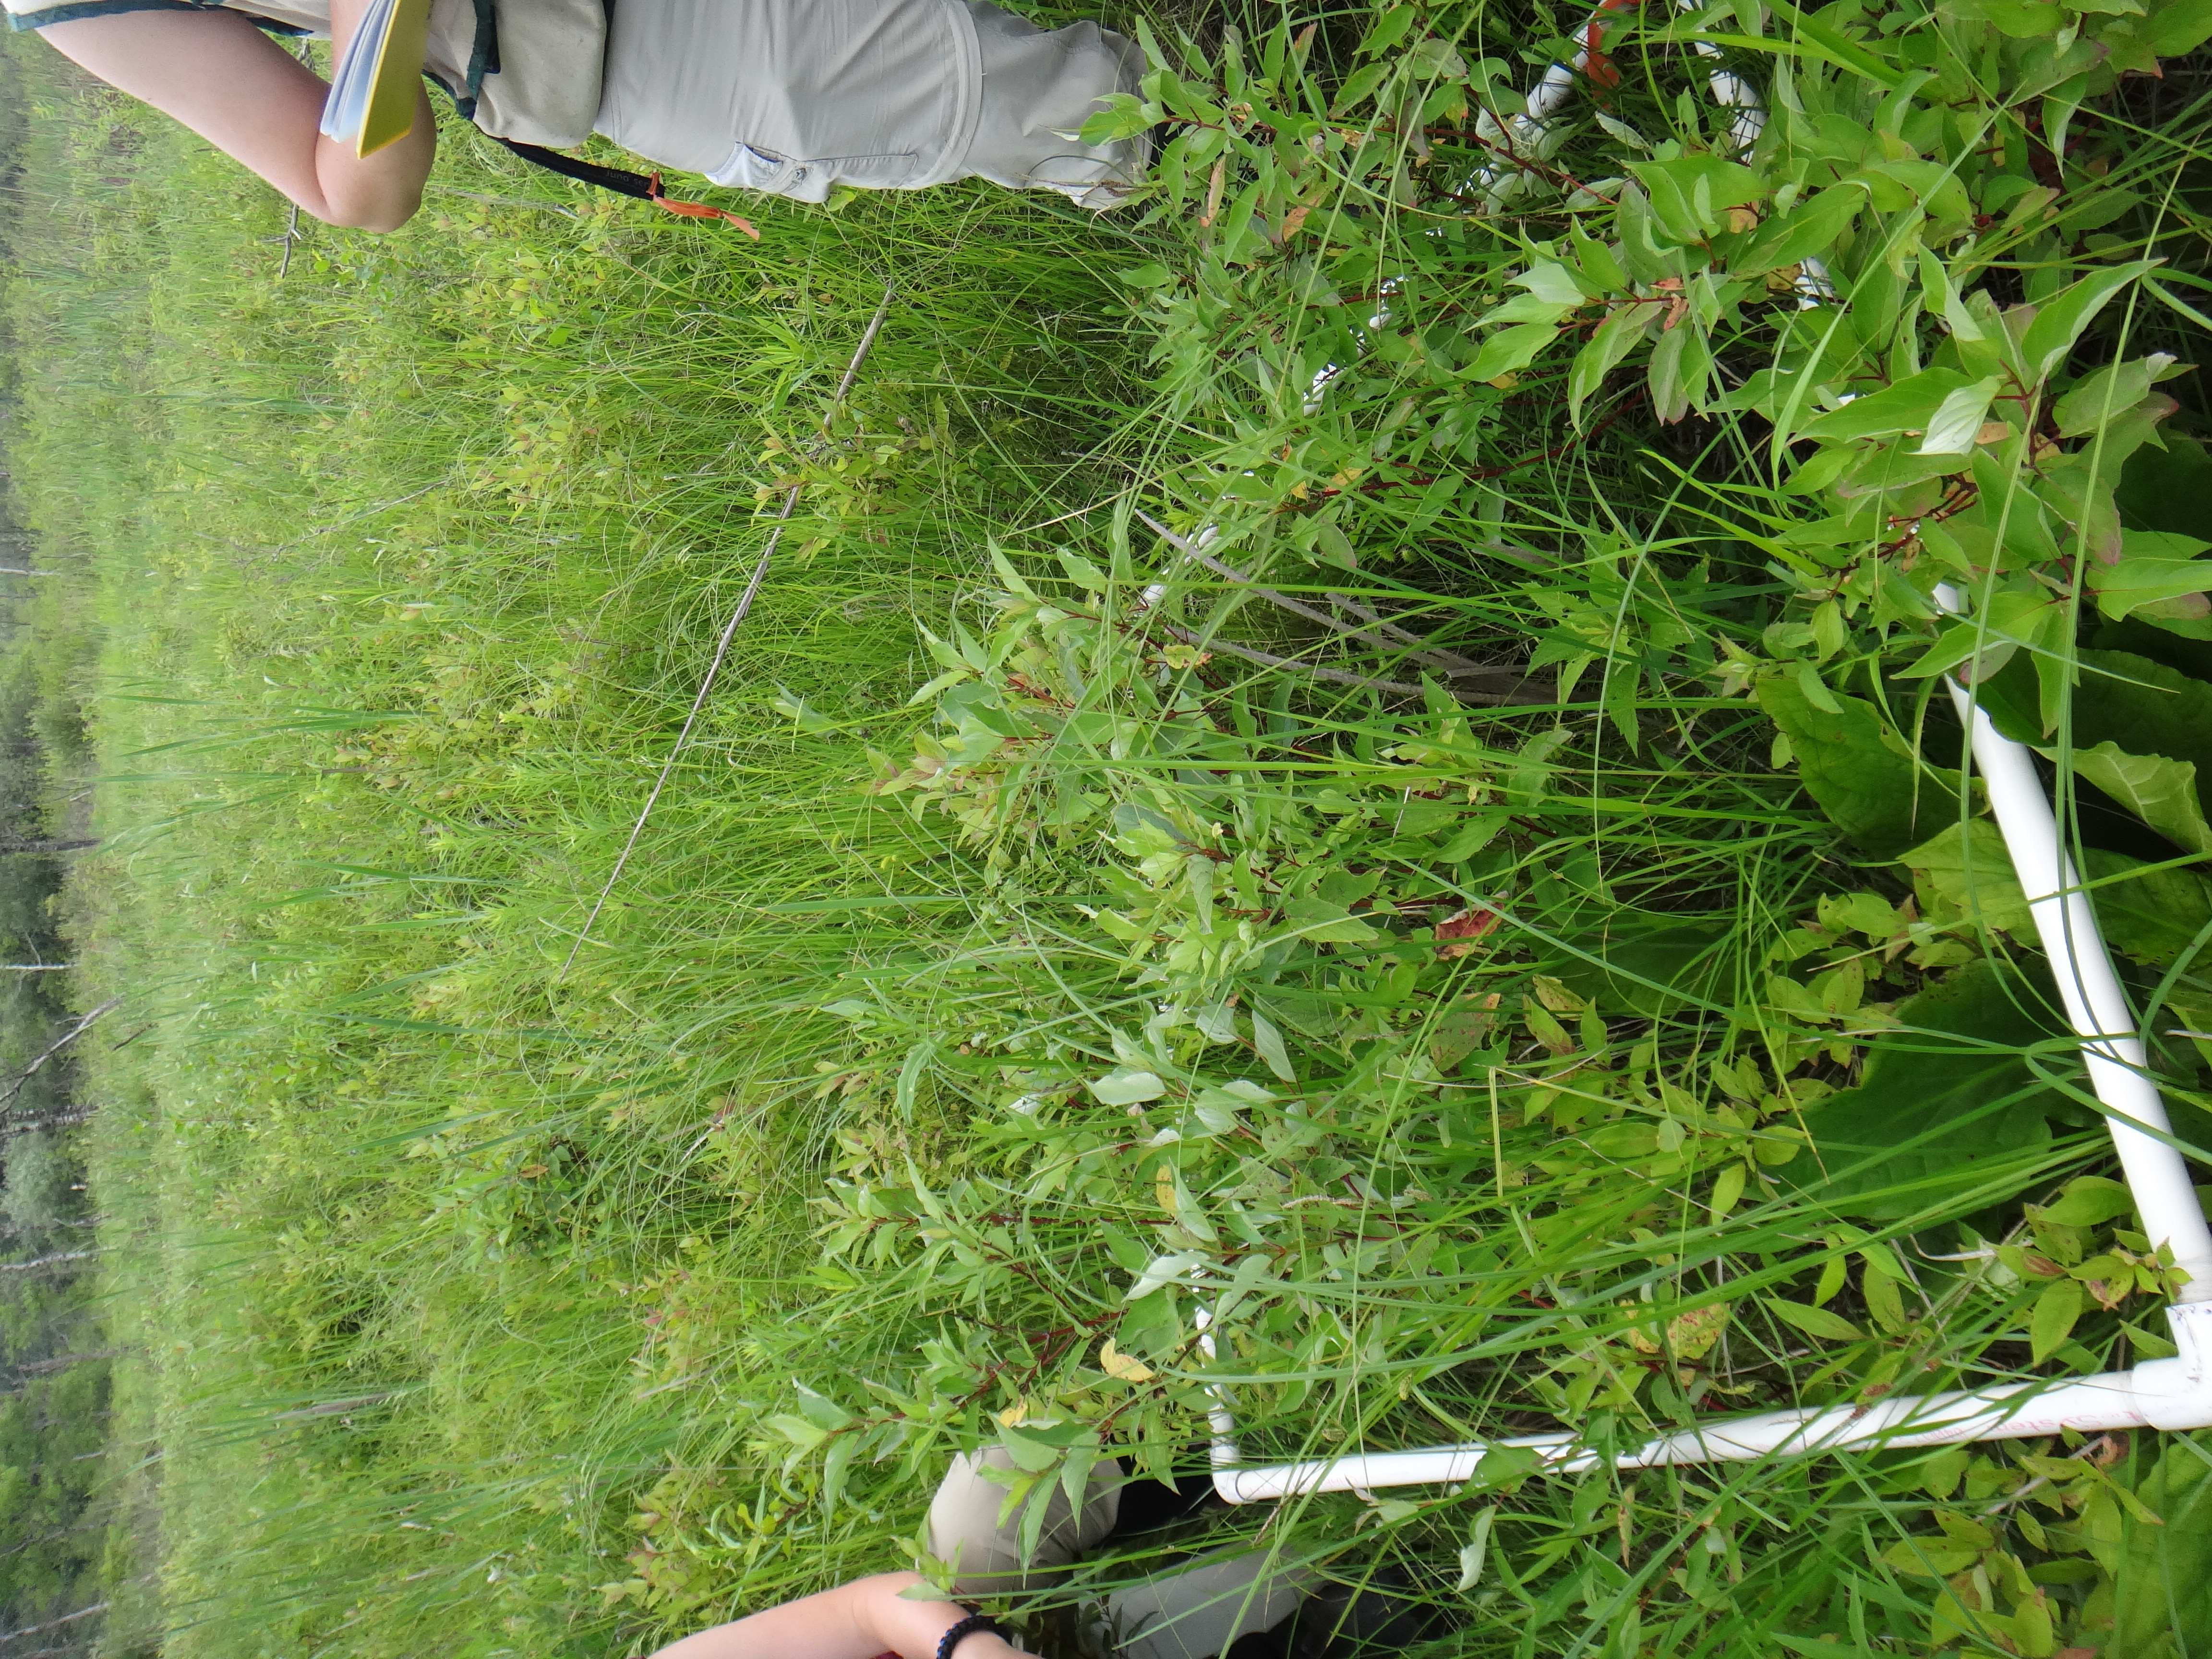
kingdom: Plantae
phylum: Tracheophyta
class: Liliopsida
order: Poales
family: Cyperaceae
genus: Carex
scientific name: Carex stricta
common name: Hummock sedge
